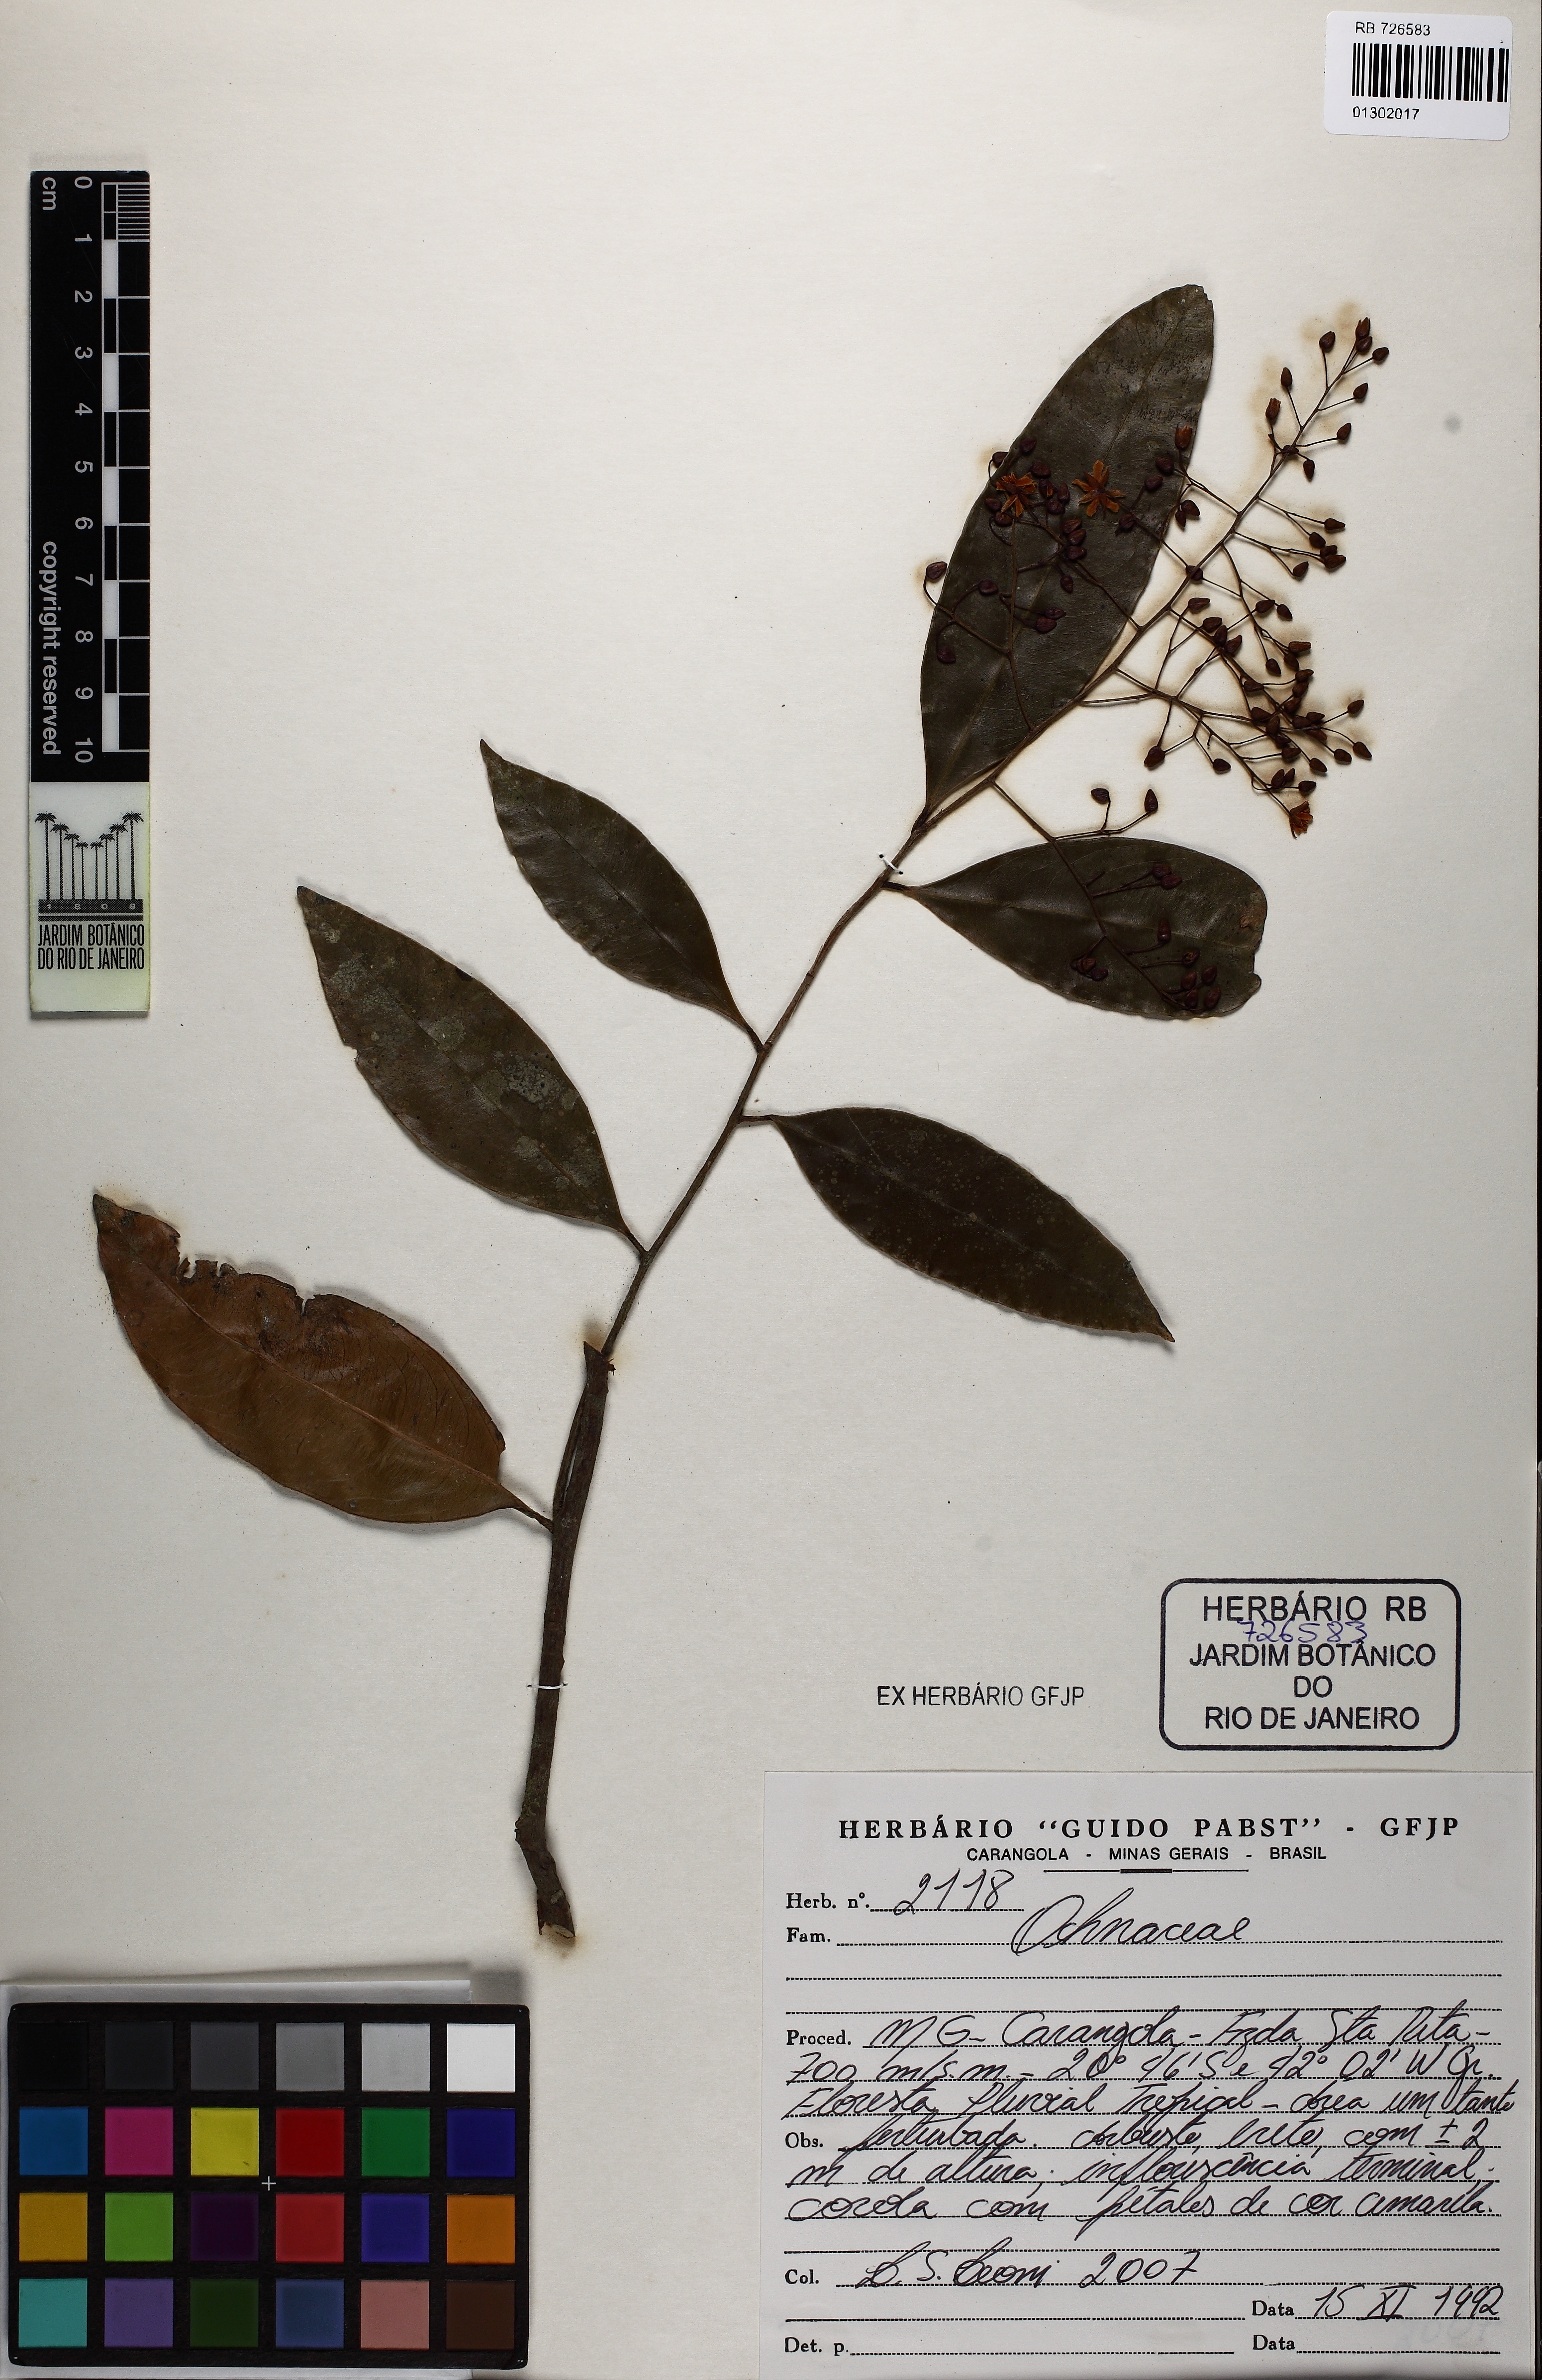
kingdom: Plantae
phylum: Tracheophyta
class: Magnoliopsida
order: Malpighiales
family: Ochnaceae
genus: Ouratea
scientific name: Ouratea
